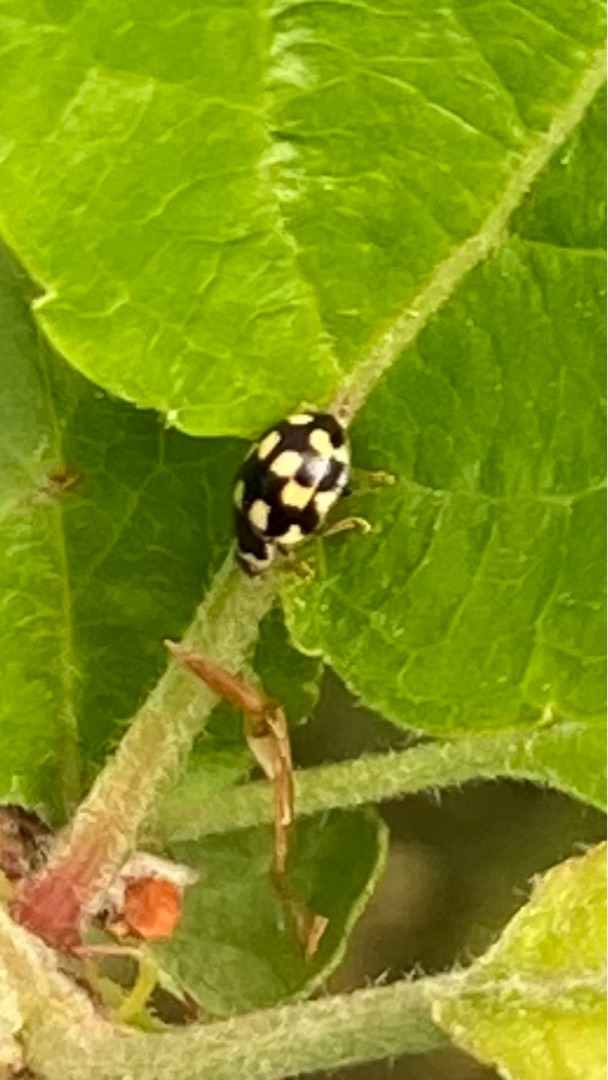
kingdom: Animalia
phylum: Arthropoda
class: Insecta
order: Coleoptera
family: Coccinellidae
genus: Propylaea
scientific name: Propylaea quatuordecimpunctata
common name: Skakbræt
